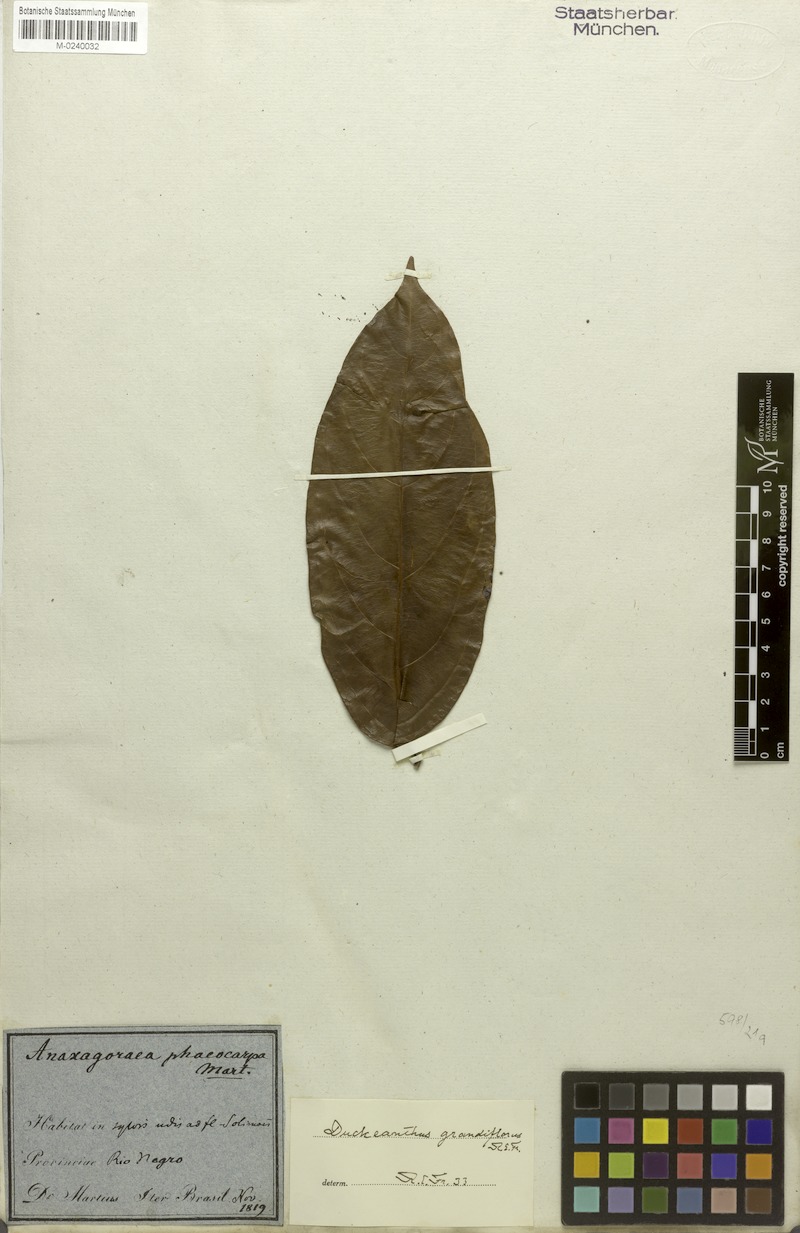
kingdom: Plantae
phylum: Tracheophyta
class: Magnoliopsida
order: Magnoliales
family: Annonaceae
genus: Duckeanthus
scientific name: Duckeanthus grandiflorus
